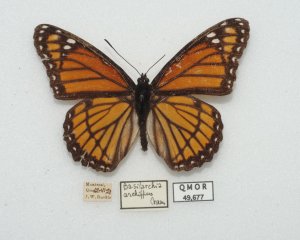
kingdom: Animalia
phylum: Arthropoda
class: Insecta
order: Lepidoptera
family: Nymphalidae
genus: Limenitis
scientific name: Limenitis archippus
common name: Viceroy
